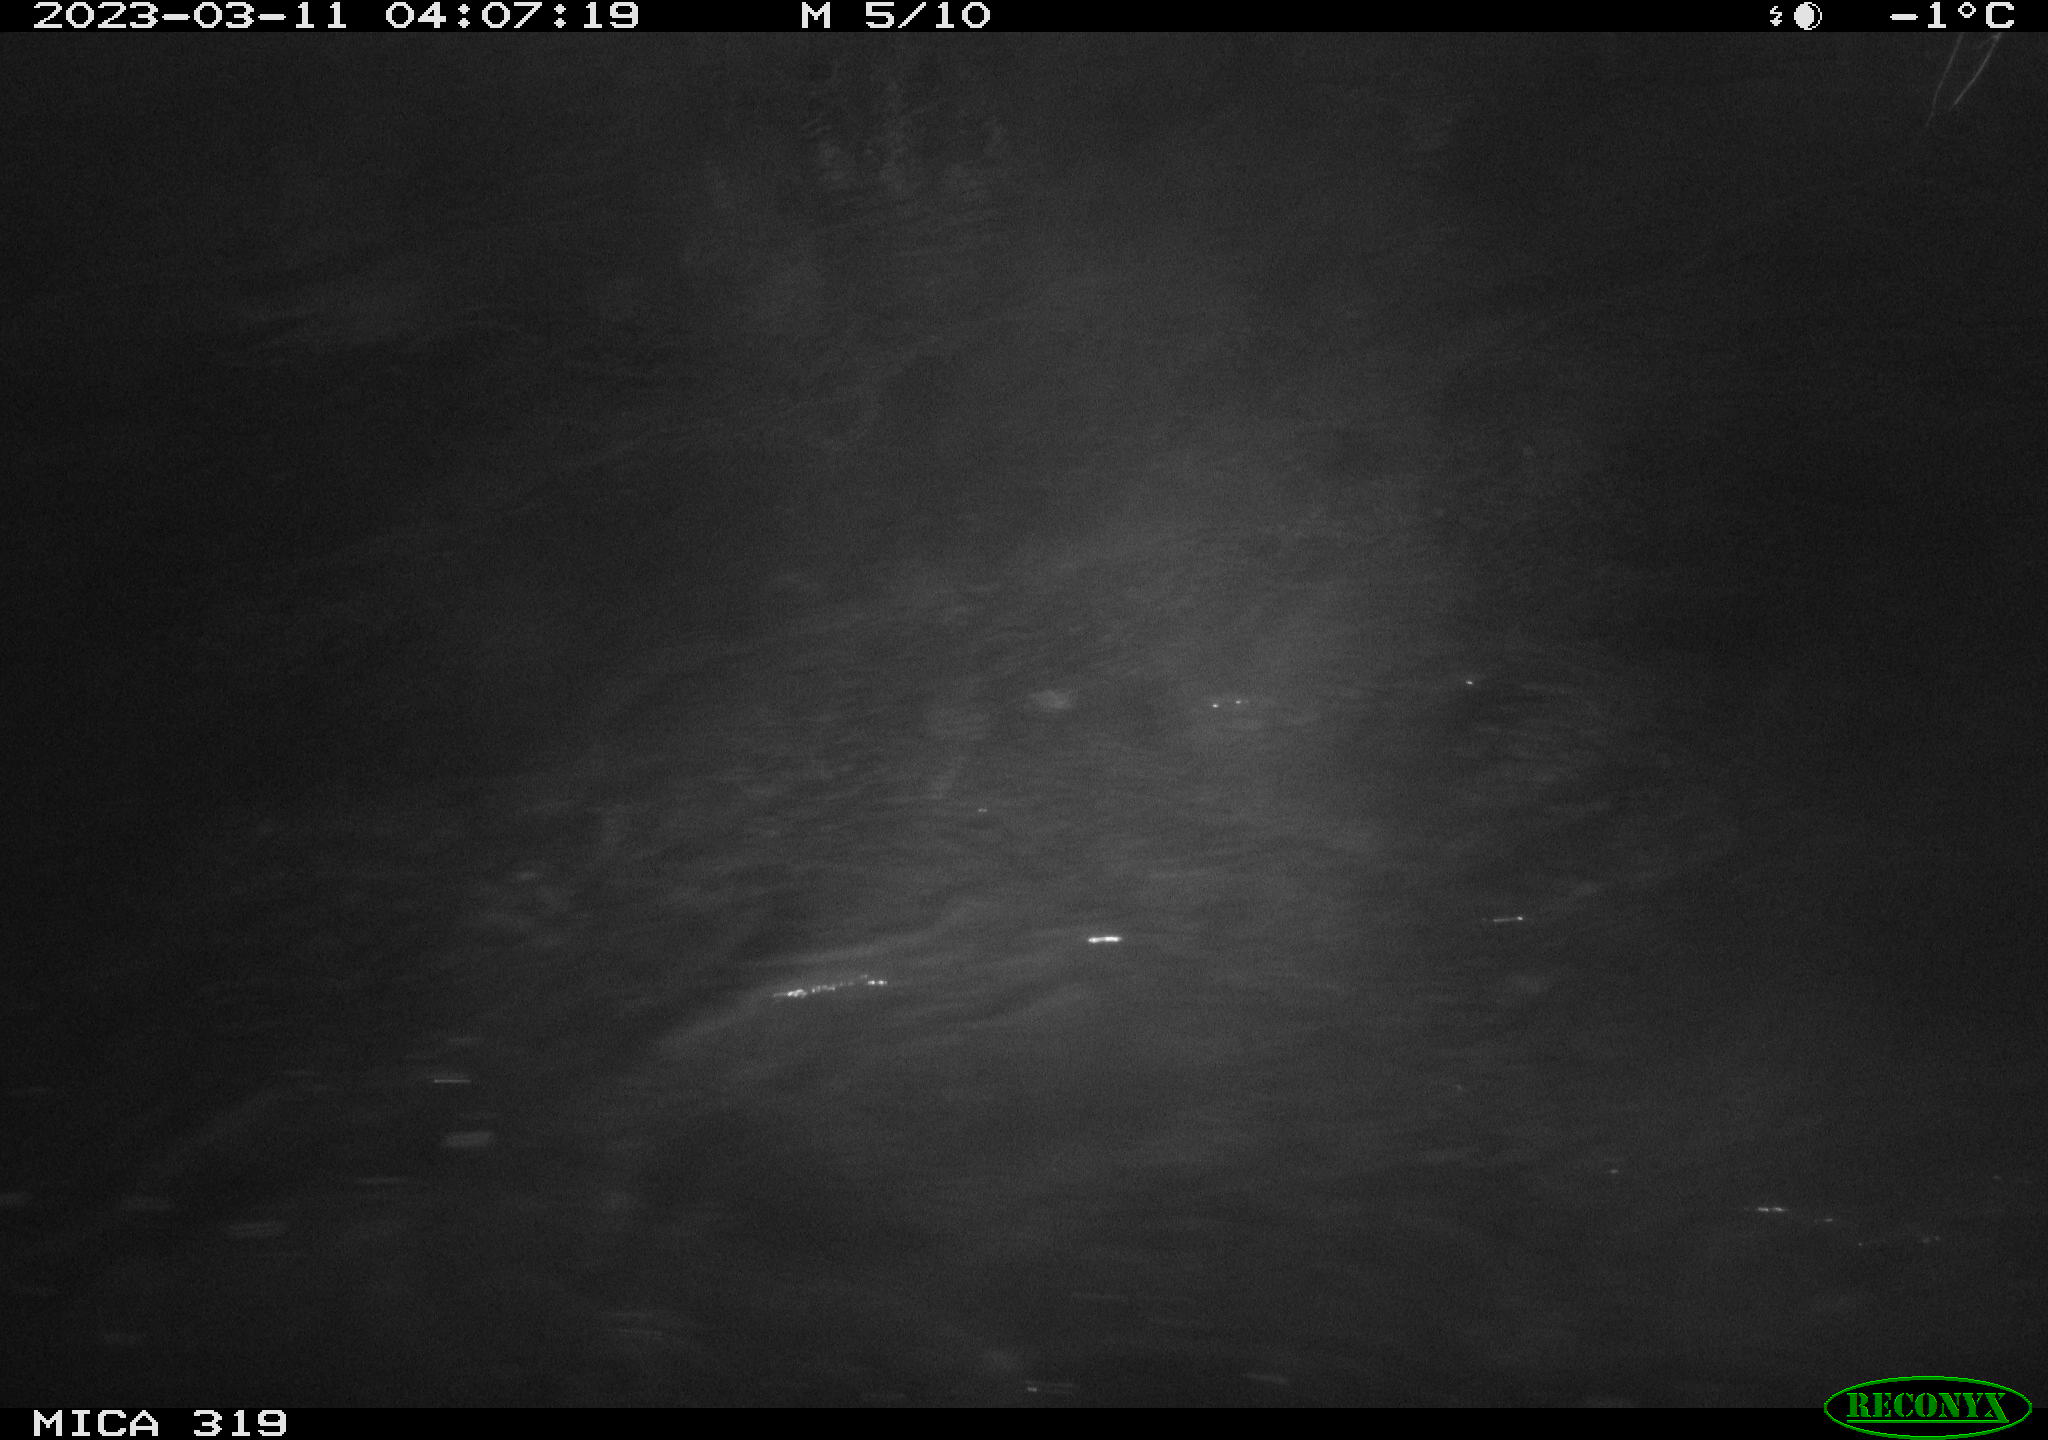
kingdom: Animalia
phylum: Chordata
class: Aves
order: Anseriformes
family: Anatidae
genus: Anas
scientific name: Anas
